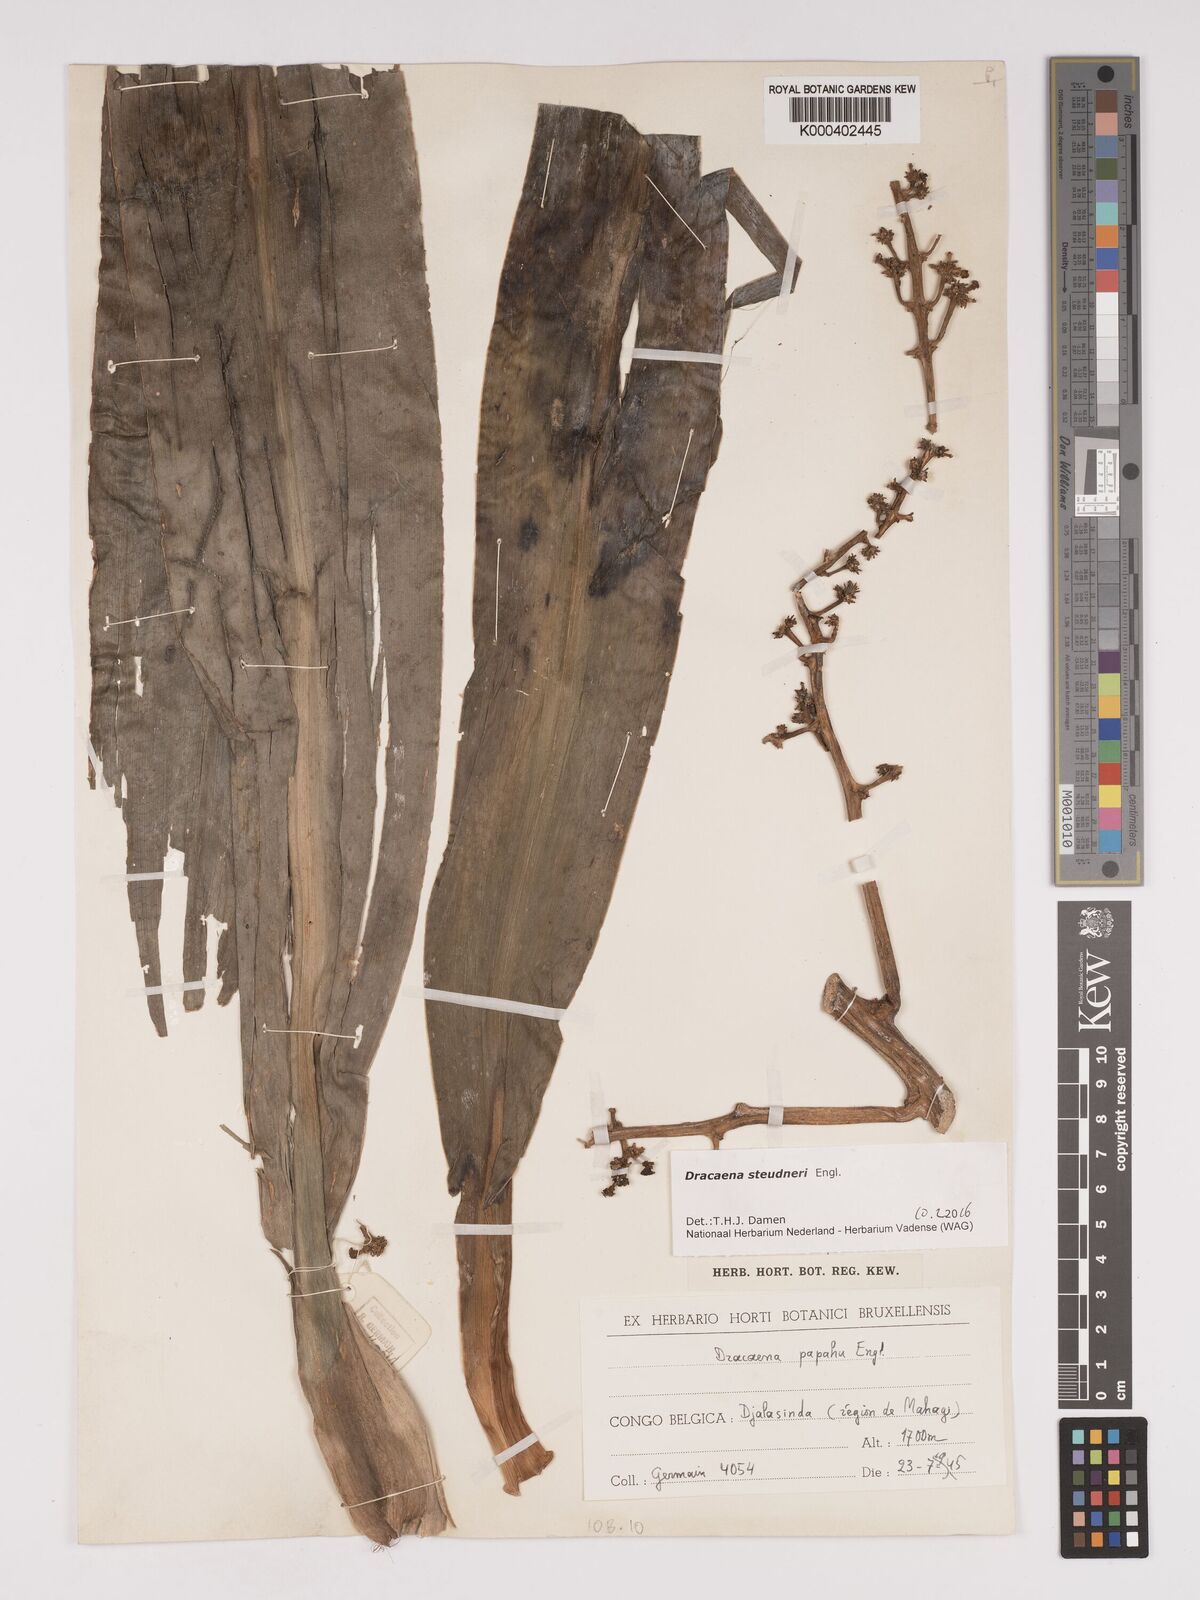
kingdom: Plantae
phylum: Tracheophyta
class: Liliopsida
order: Asparagales
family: Asparagaceae
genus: Dracaena
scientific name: Dracaena steudneri
